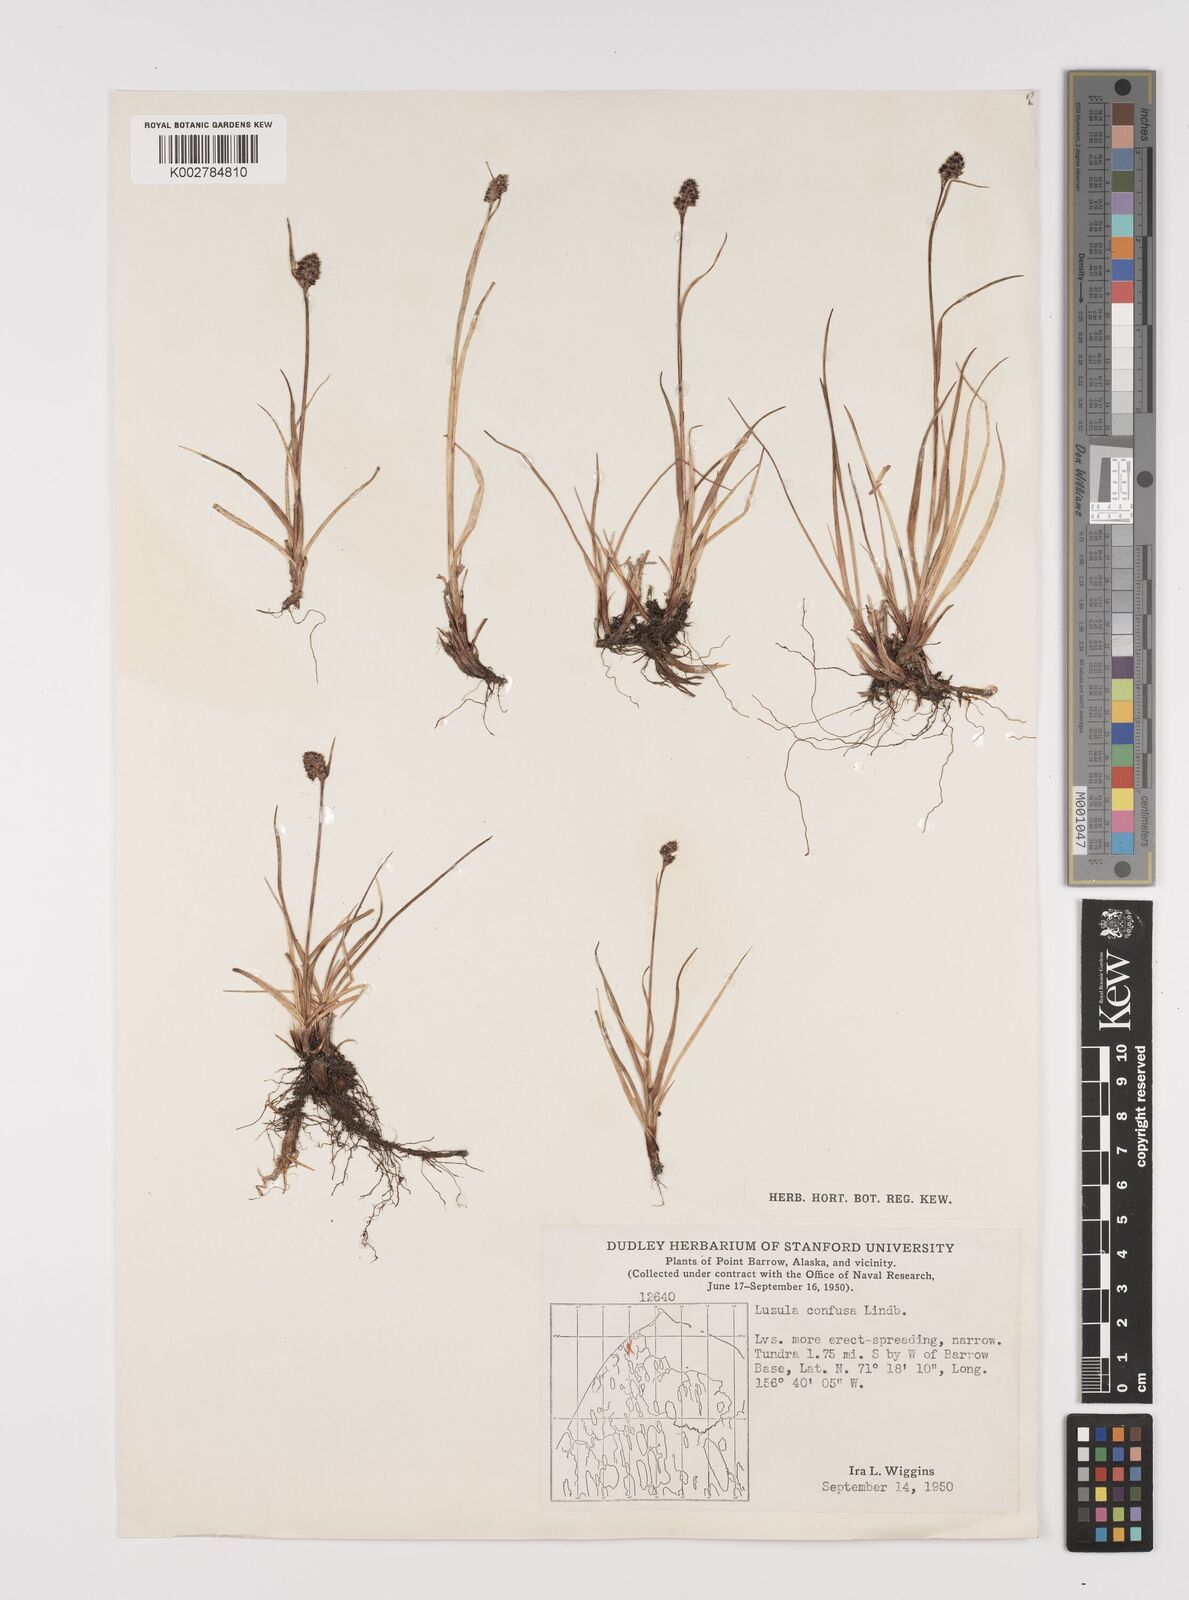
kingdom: Plantae
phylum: Tracheophyta
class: Liliopsida
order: Poales
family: Juncaceae
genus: Luzula
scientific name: Luzula confusa
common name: Northern wood rush
